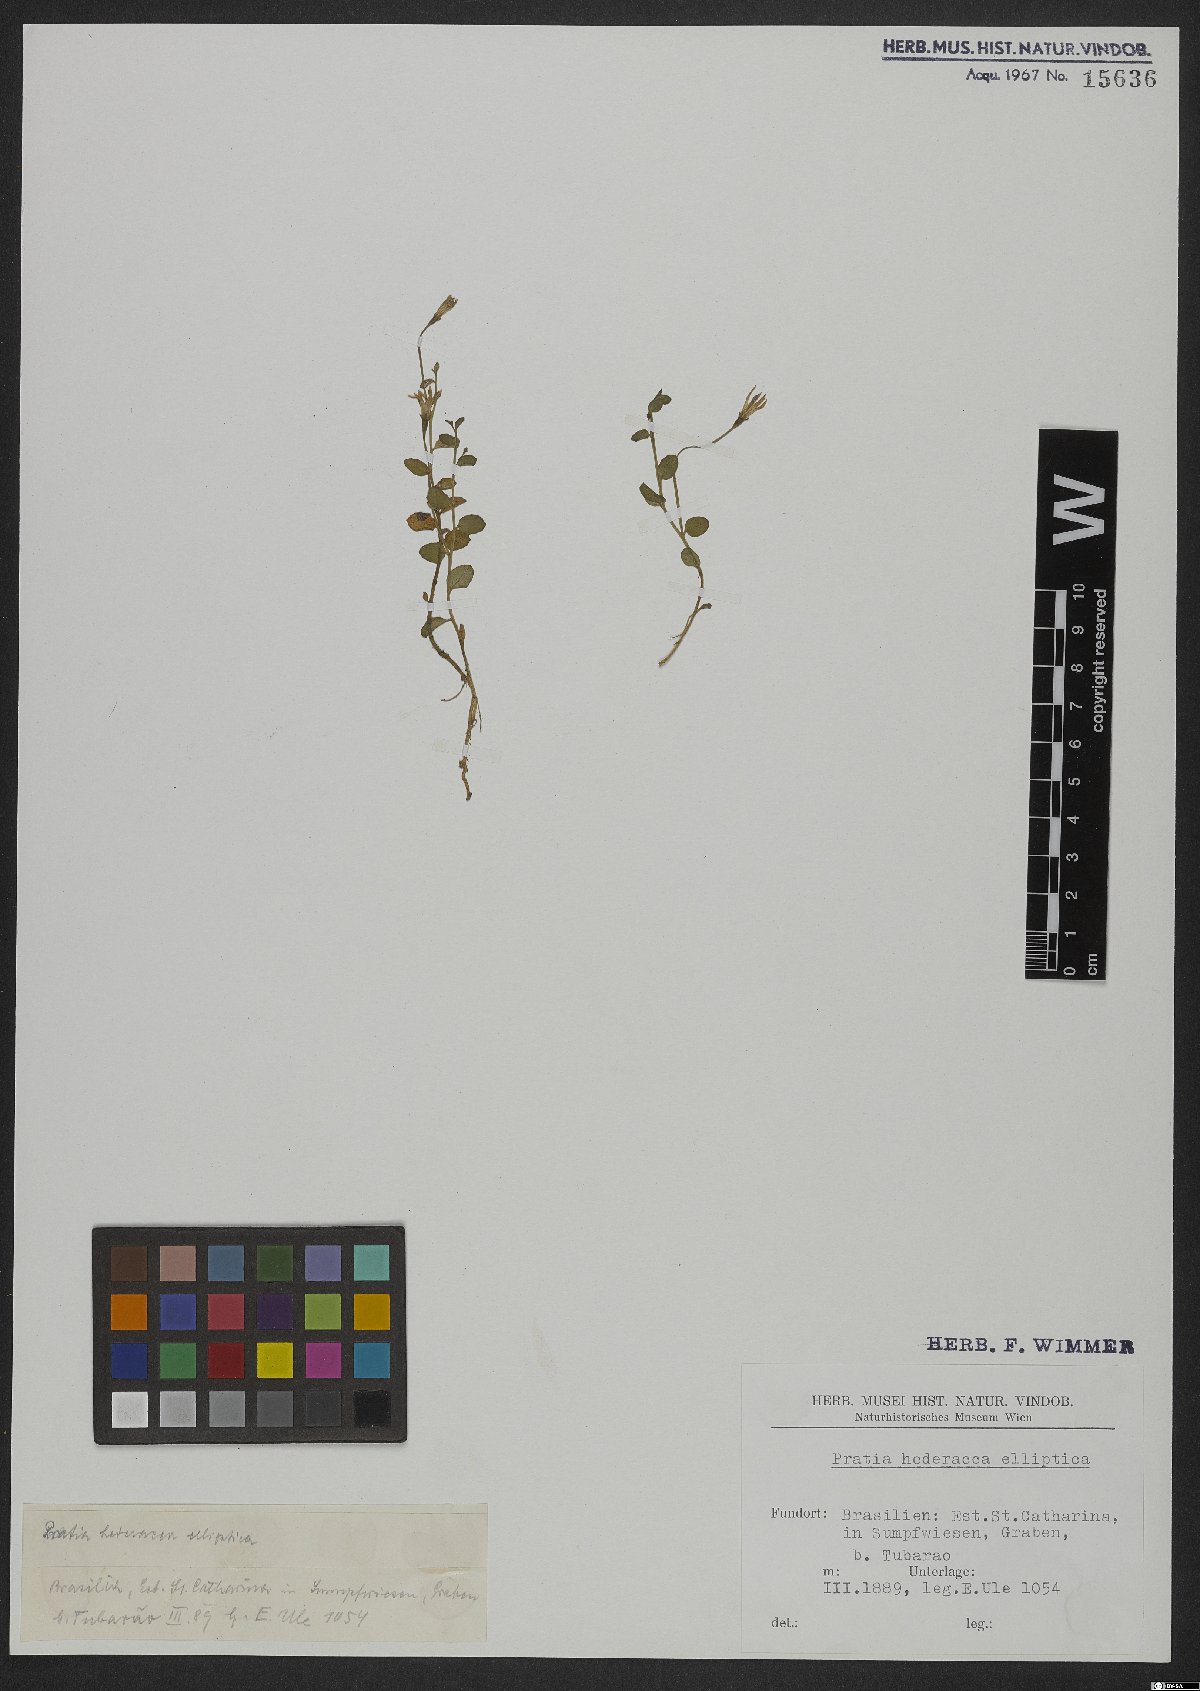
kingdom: Plantae
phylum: Tracheophyta
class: Magnoliopsida
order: Asterales
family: Campanulaceae
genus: Lobelia
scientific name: Lobelia hederacea
